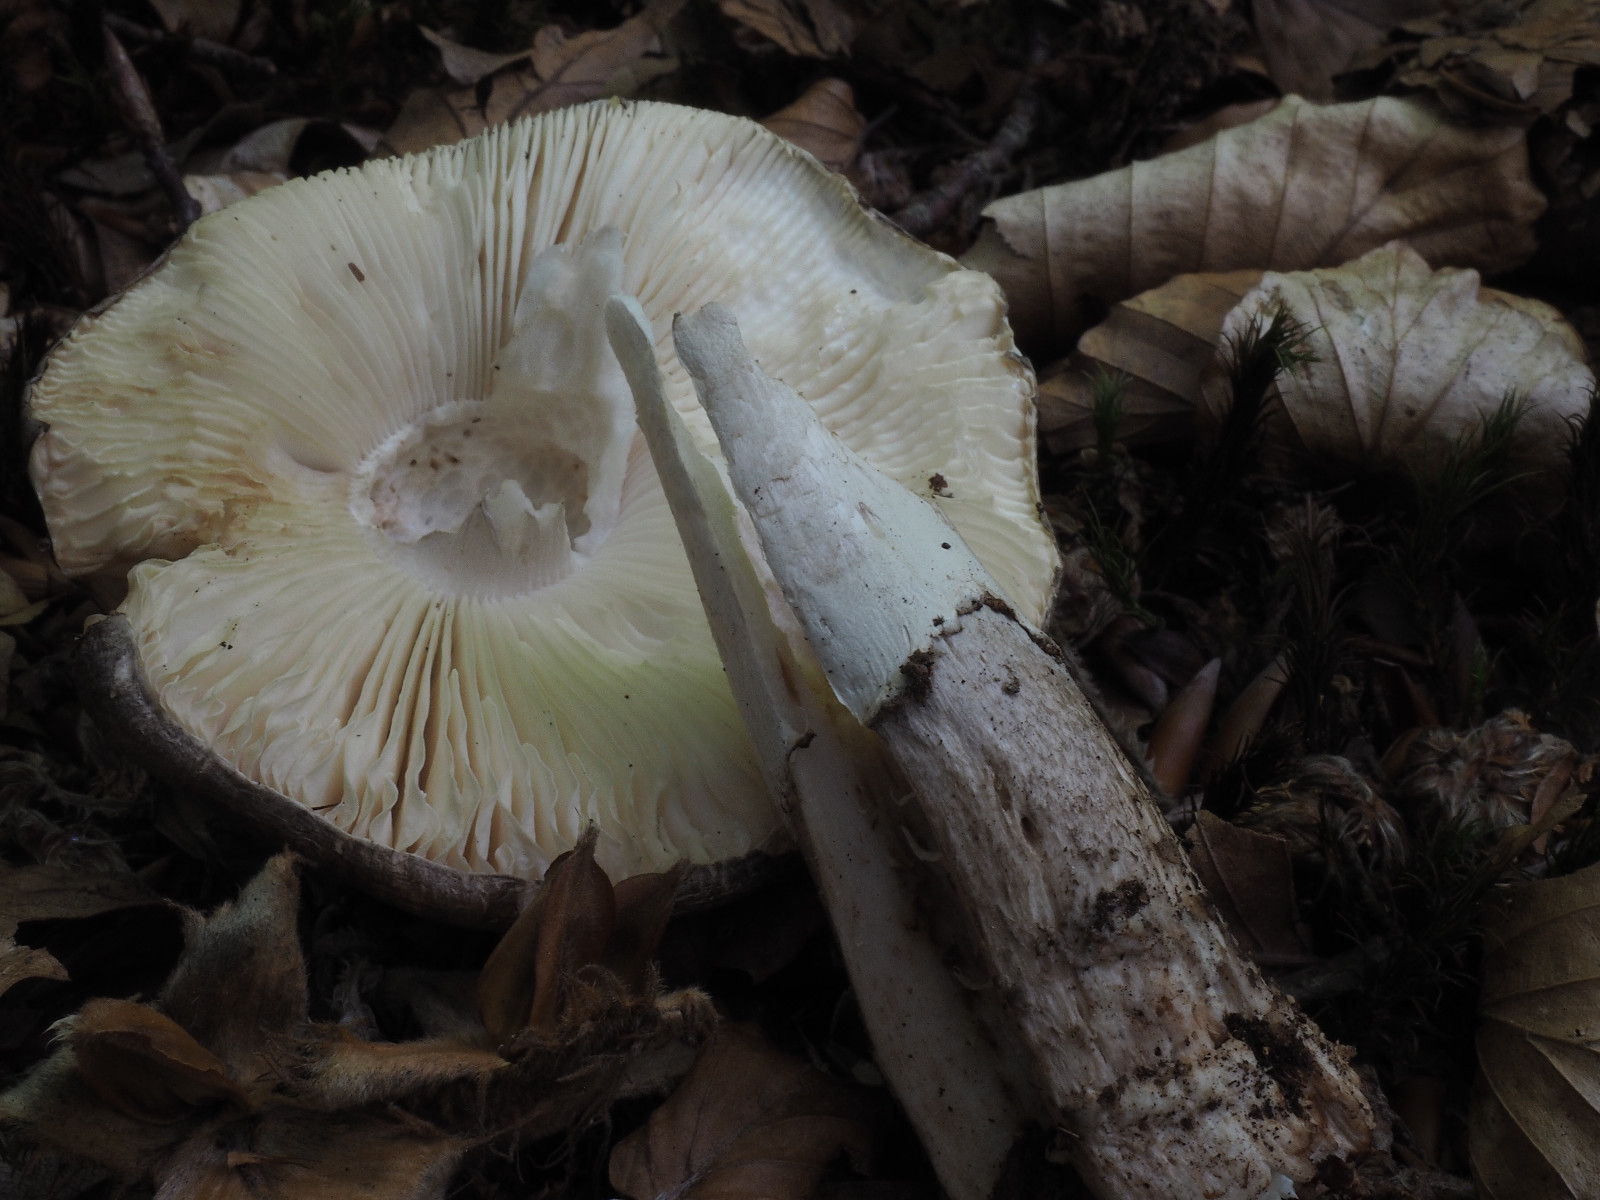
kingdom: Fungi
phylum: Basidiomycota
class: Agaricomycetes
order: Agaricales
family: Amanitaceae
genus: Amanita
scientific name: Amanita
